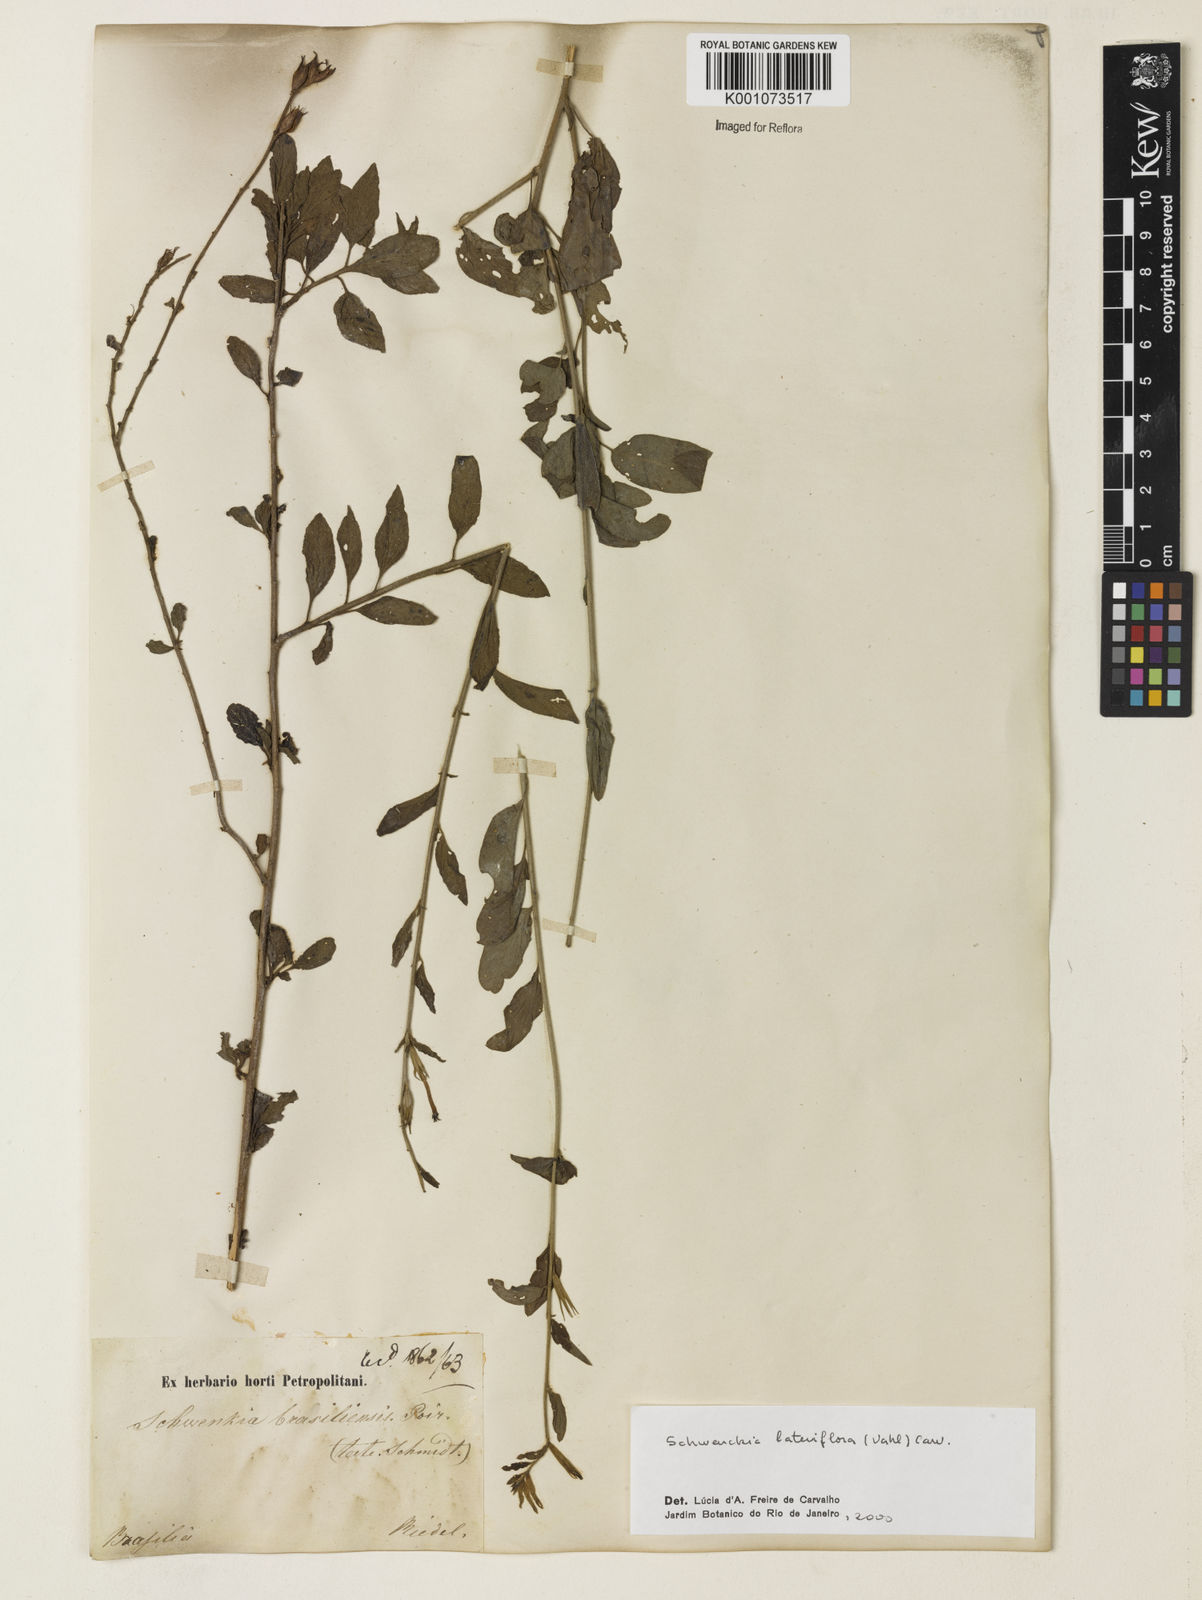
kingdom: Plantae
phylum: Tracheophyta
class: Magnoliopsida
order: Solanales
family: Solanaceae
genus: Schwenckia
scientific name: Schwenckia lateriflora
